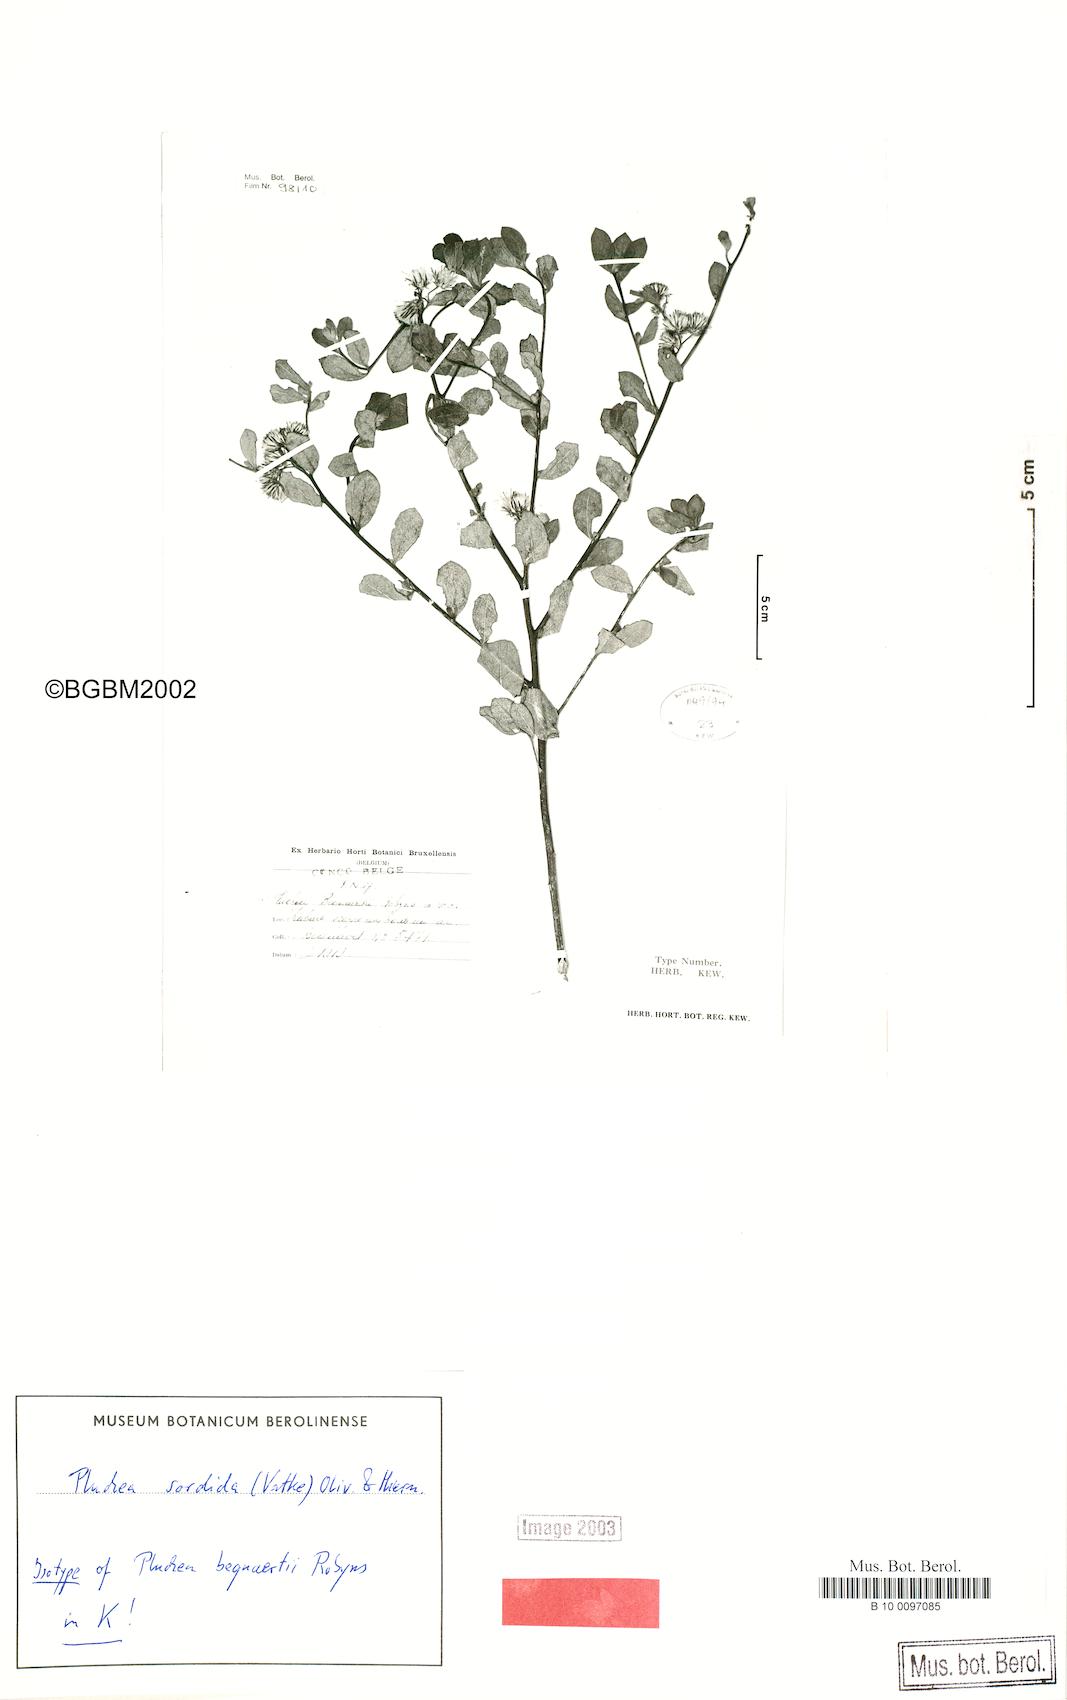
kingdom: Plantae
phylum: Tracheophyta
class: Magnoliopsida
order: Asterales
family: Asteraceae
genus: Pluchea
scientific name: Pluchea sordida
